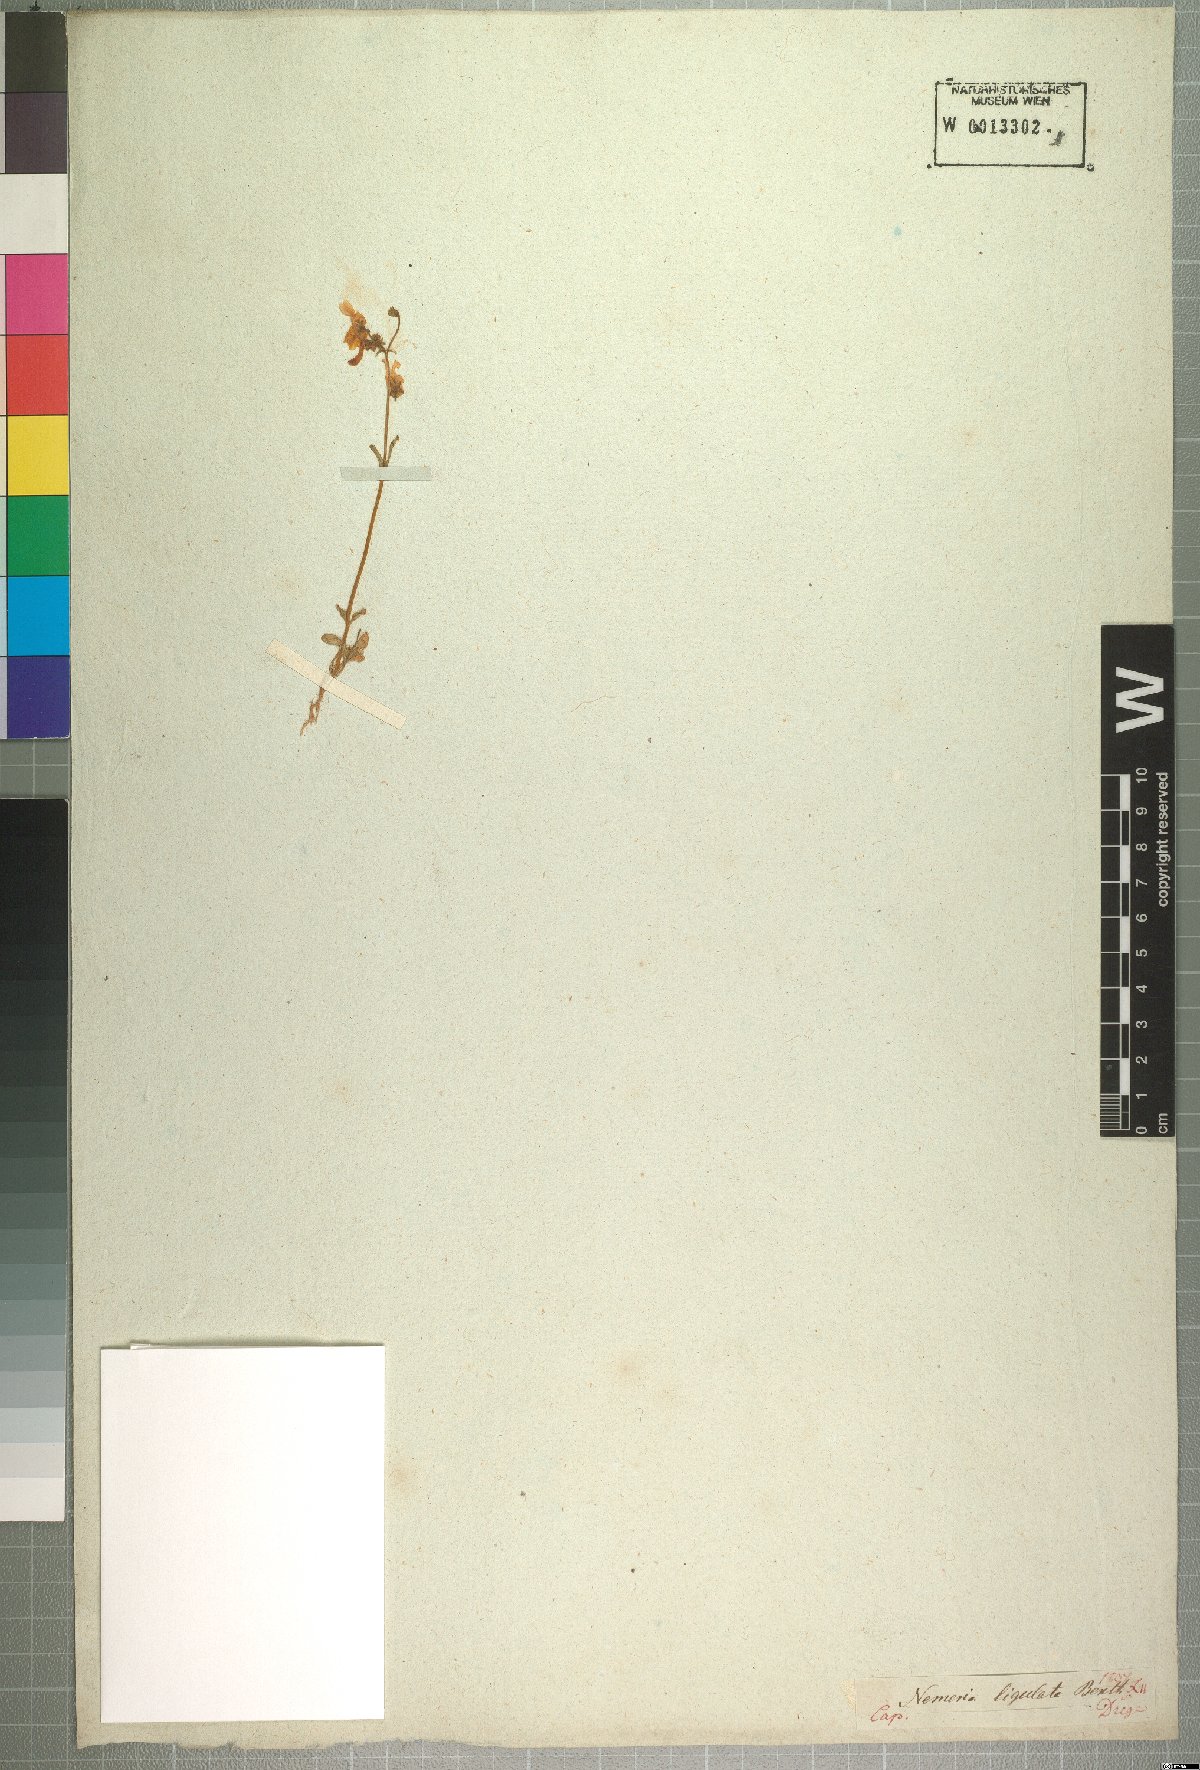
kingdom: Plantae
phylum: Tracheophyta
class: Magnoliopsida
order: Lamiales
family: Scrophulariaceae
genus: Nemesia
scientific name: Nemesia ligulata
